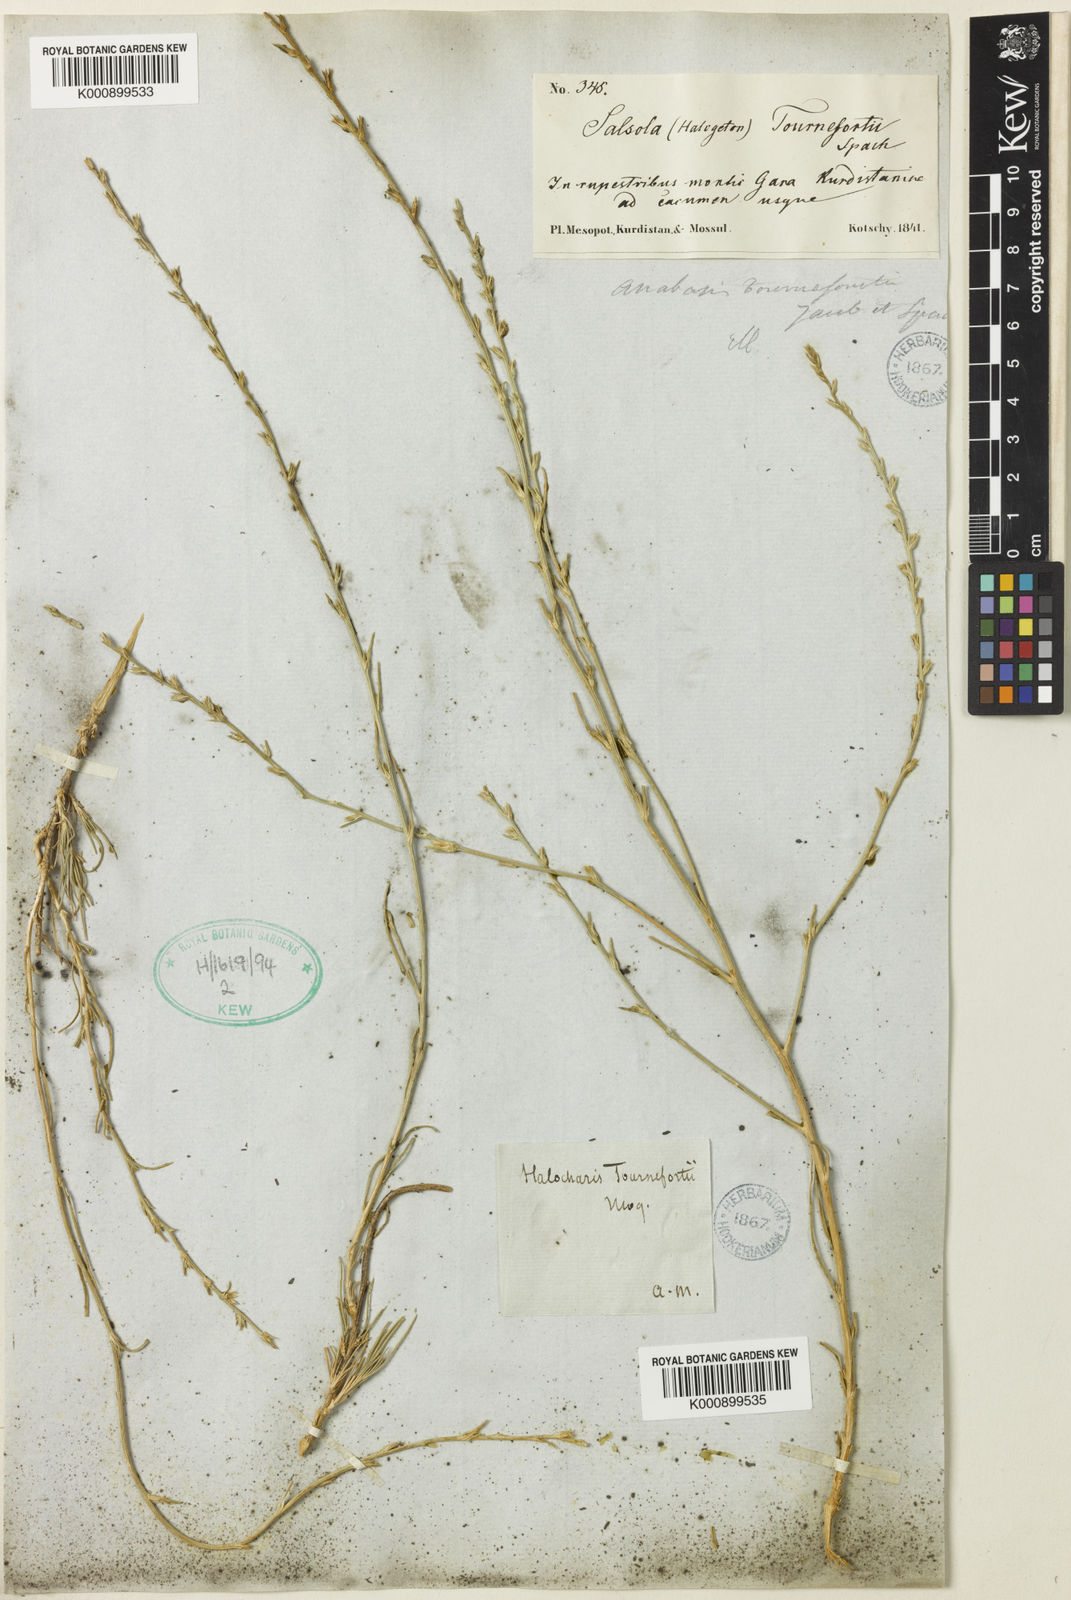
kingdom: Plantae
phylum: Tracheophyta
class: Magnoliopsida
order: Caryophyllales
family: Amaranthaceae
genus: Noaea
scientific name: Noaea tournefortii
